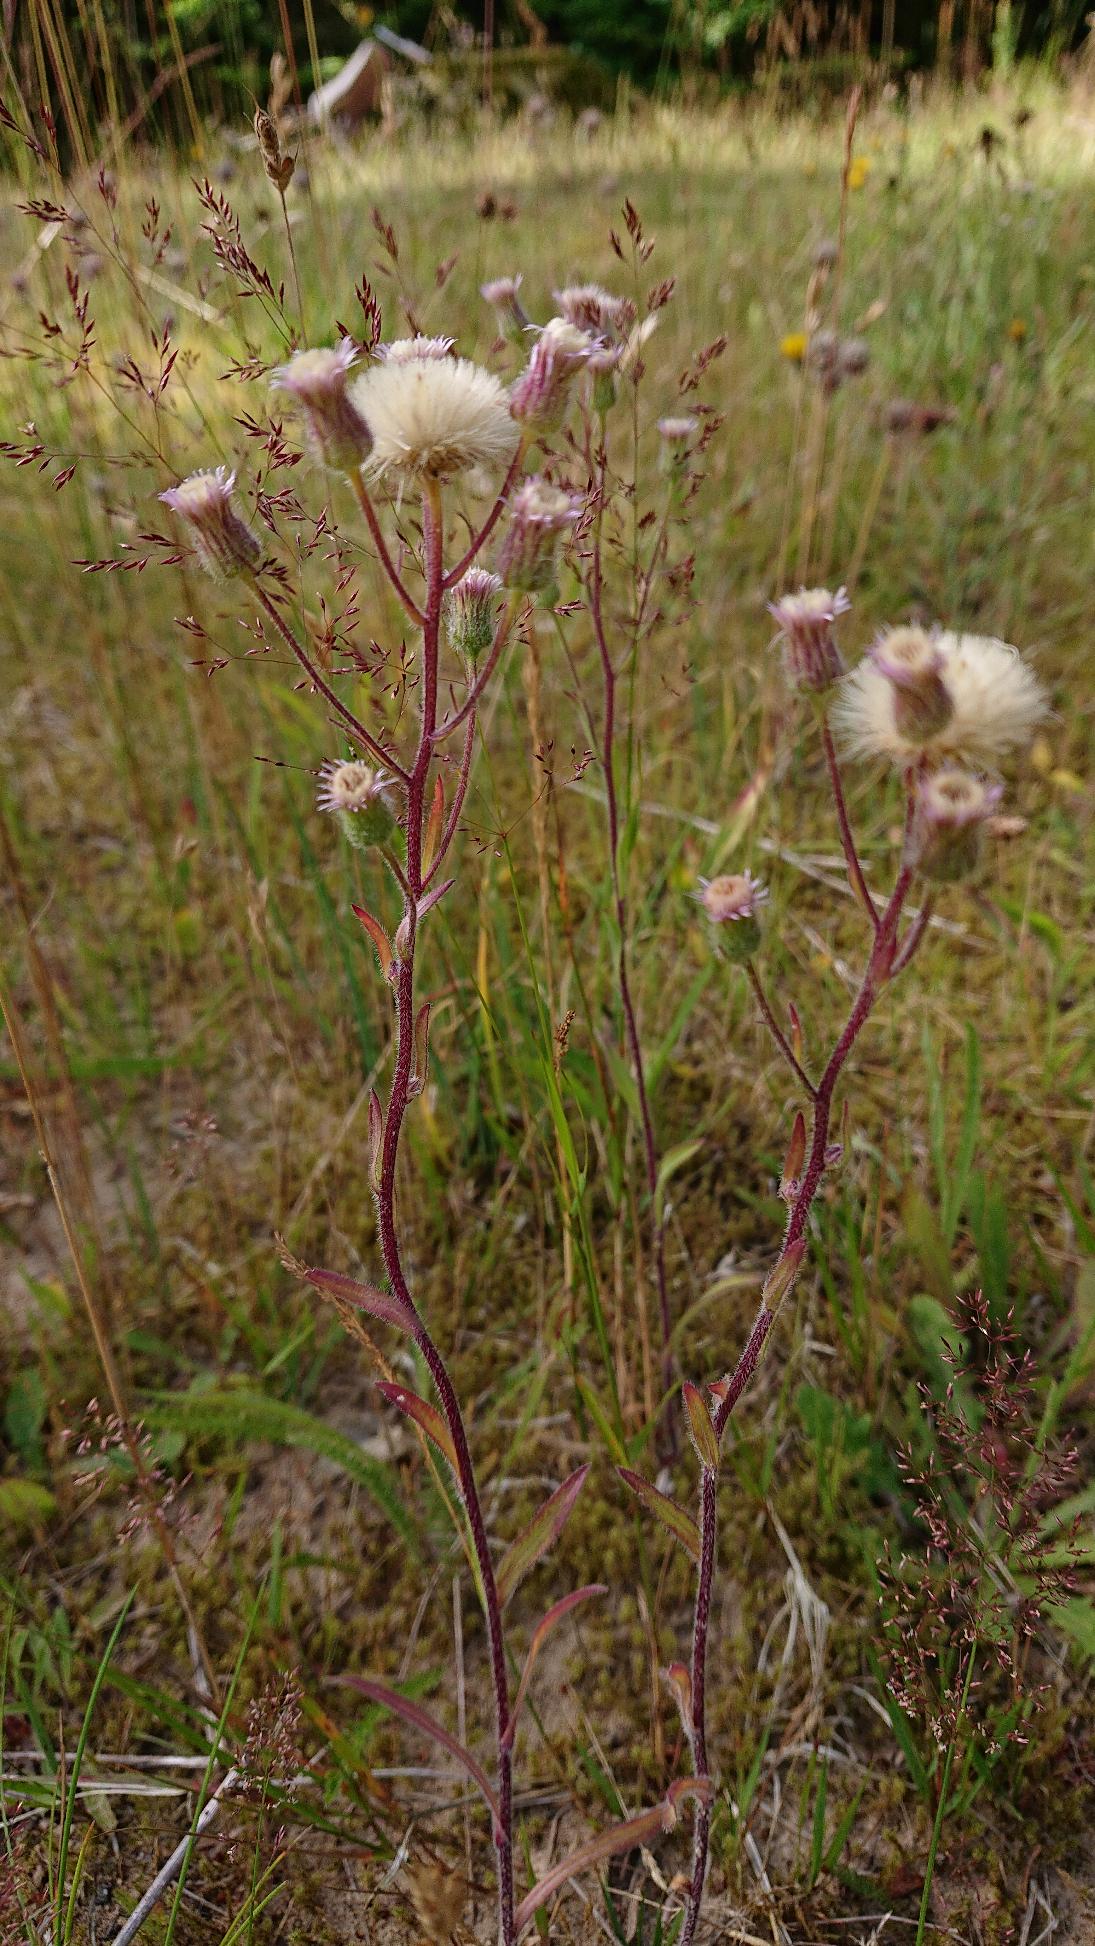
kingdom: Plantae
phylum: Tracheophyta
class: Magnoliopsida
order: Asterales
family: Asteraceae
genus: Erigeron
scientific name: Erigeron acris
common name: Bitter bakkestjerne
